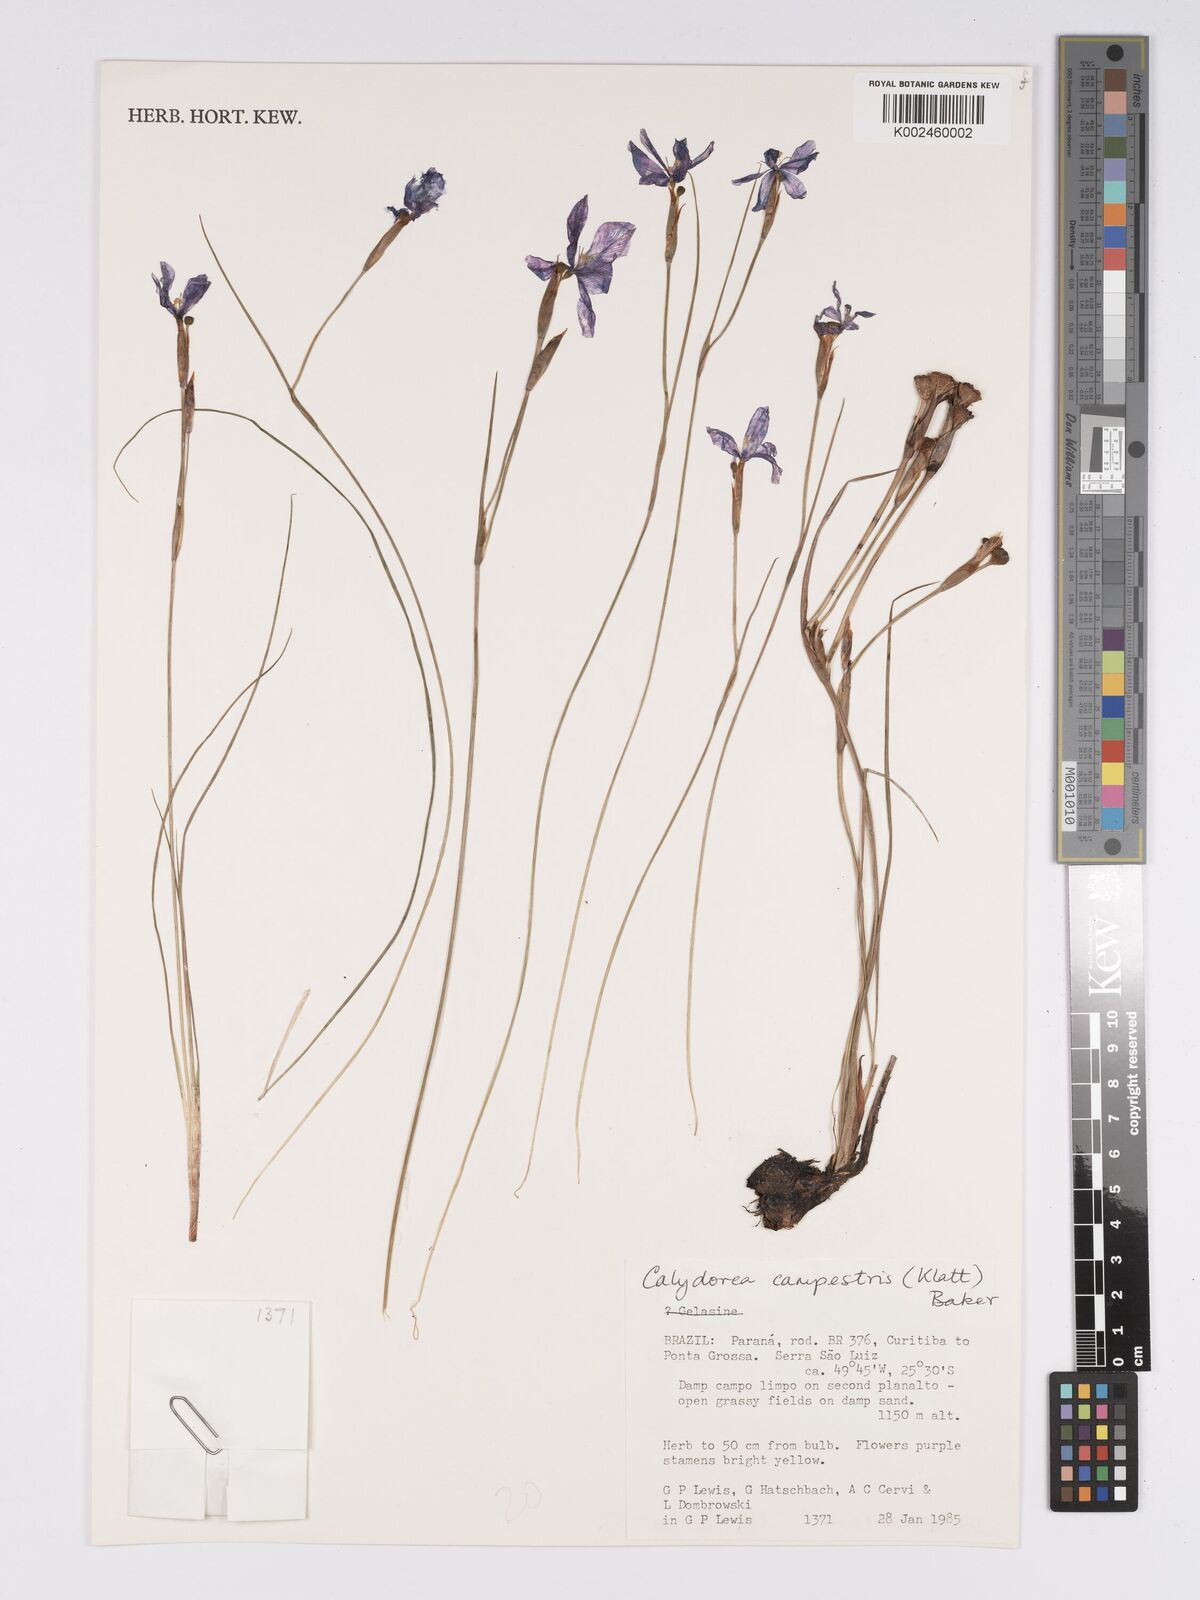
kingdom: Plantae
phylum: Tracheophyta
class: Liliopsida
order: Asparagales
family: Iridaceae
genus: Calydorea
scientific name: Calydorea campestris
